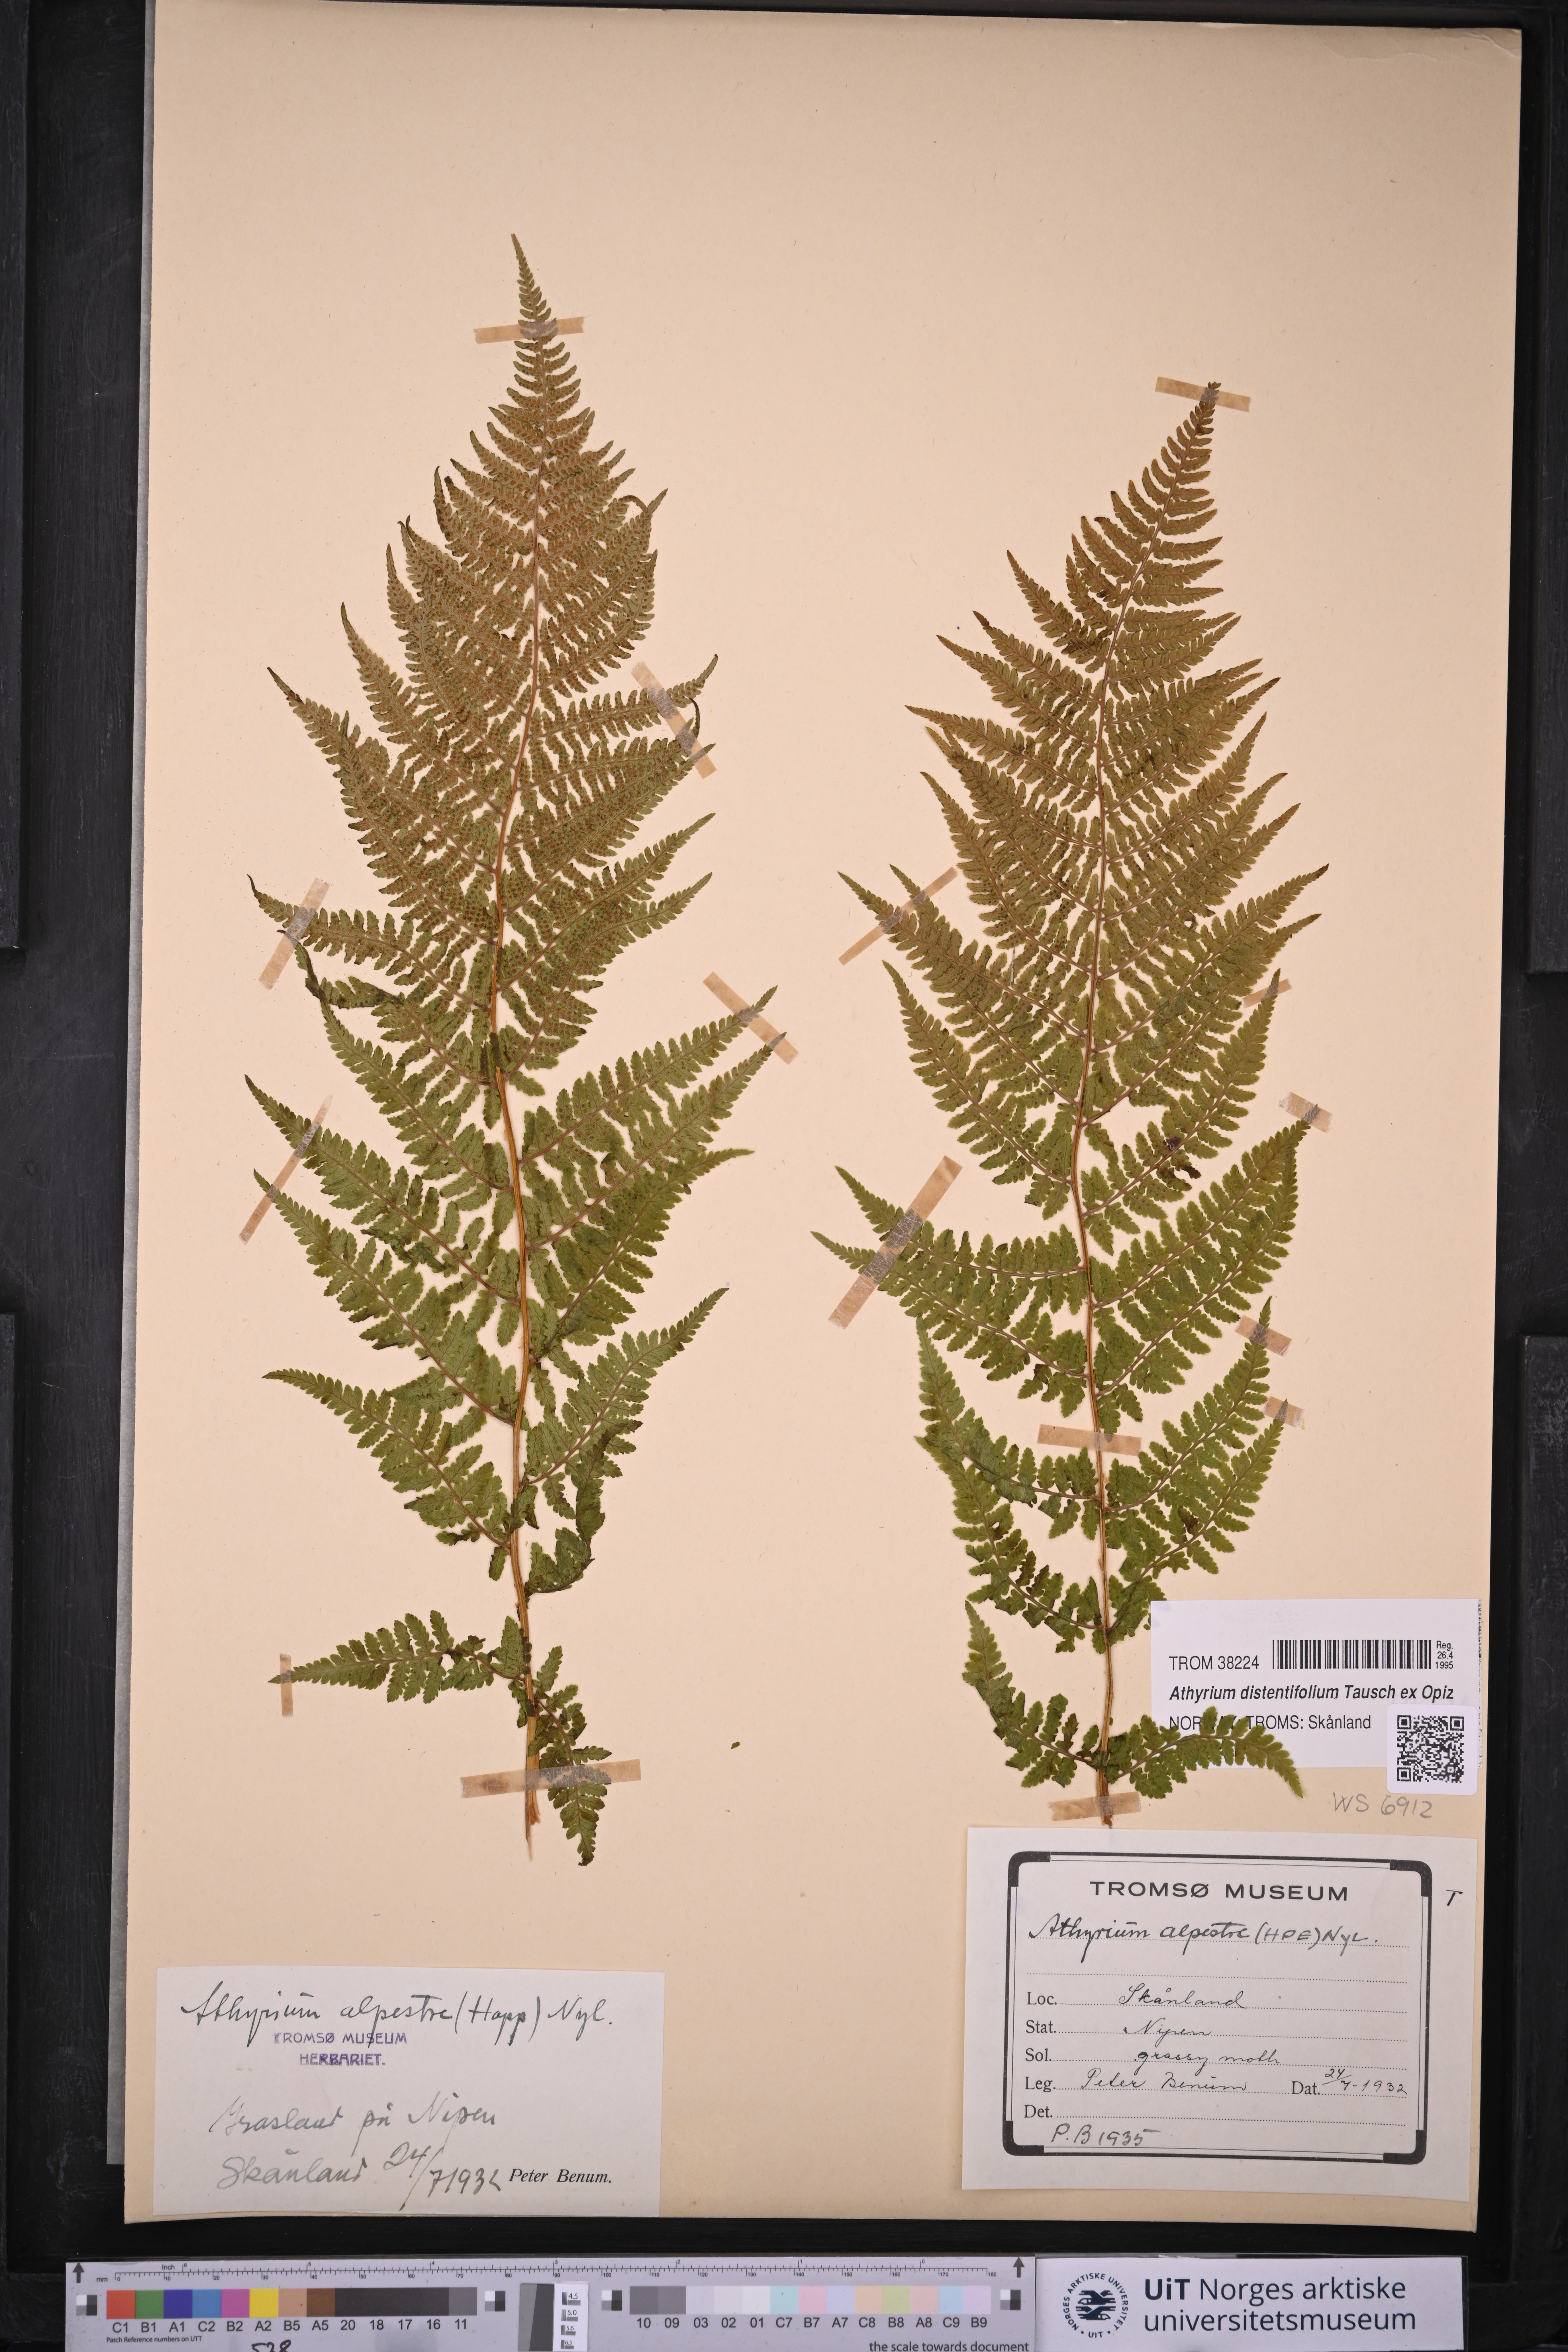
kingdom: Plantae
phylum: Tracheophyta
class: Polypodiopsida
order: Polypodiales
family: Athyriaceae
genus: Athyrium
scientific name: Athyrium filix-femina
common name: Lady fern
